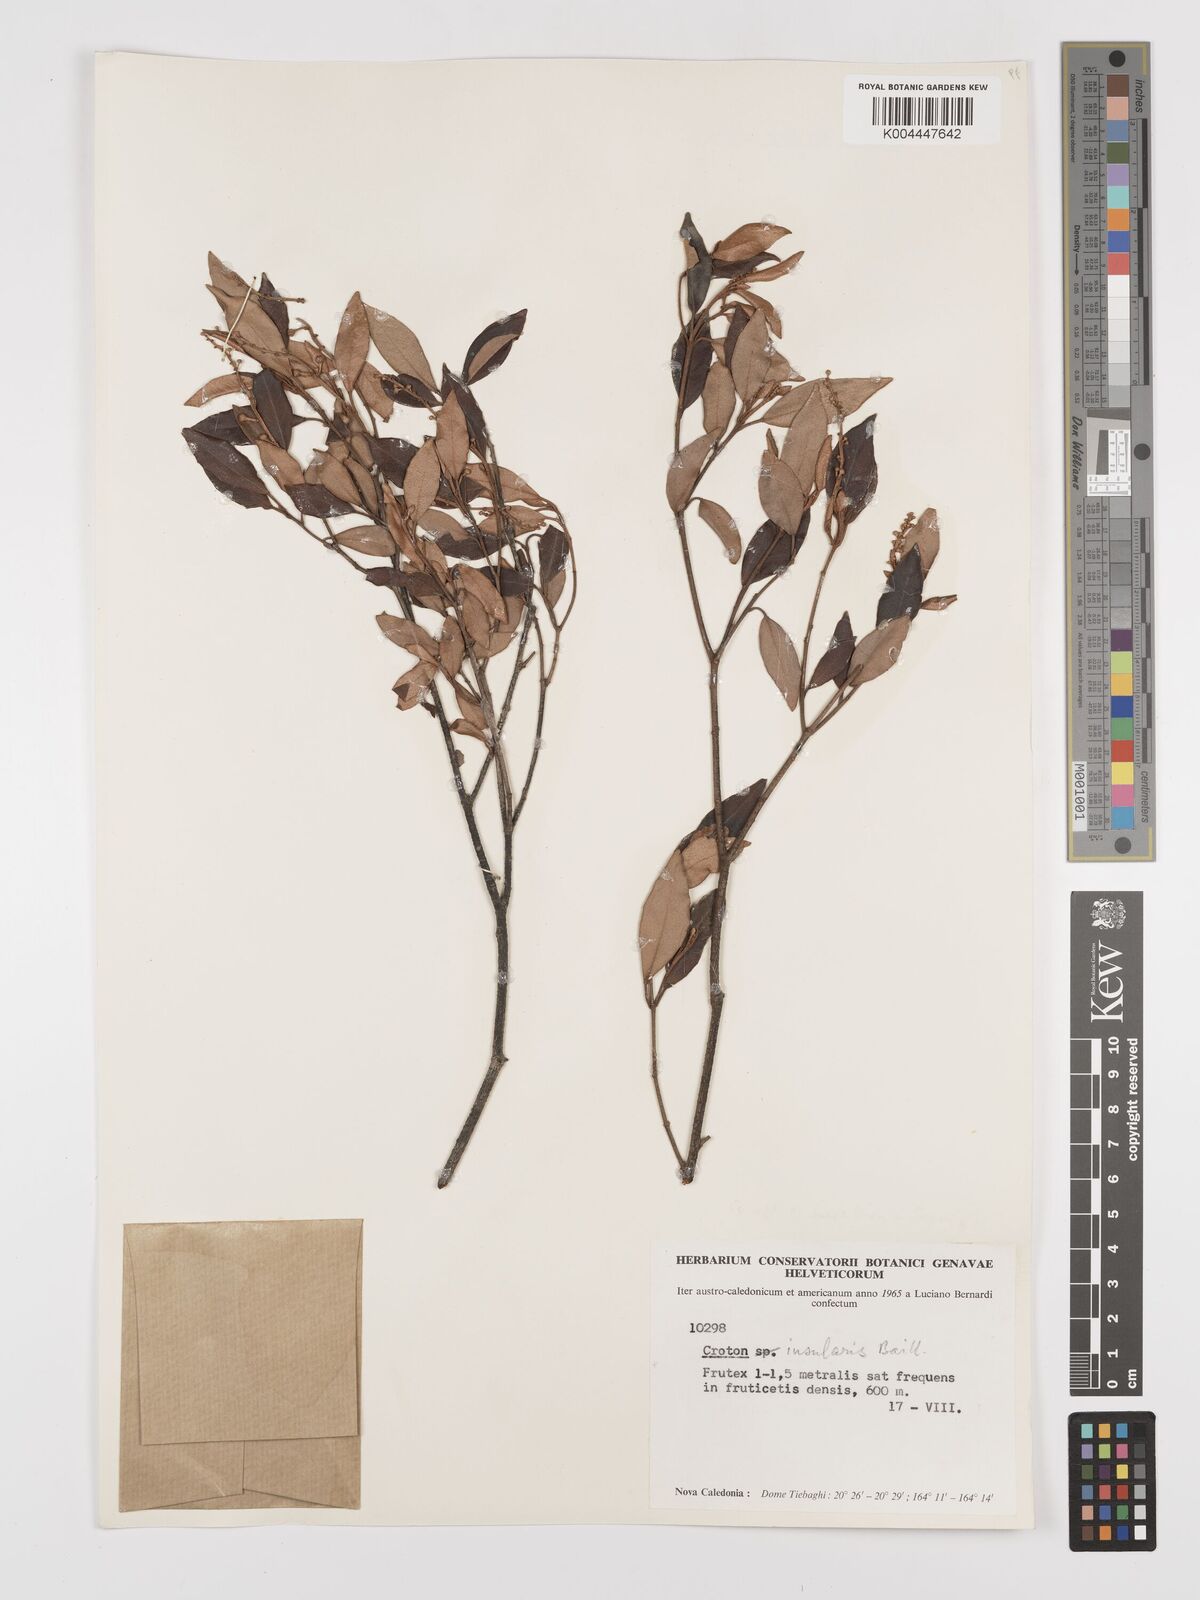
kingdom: Plantae
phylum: Tracheophyta
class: Magnoliopsida
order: Malpighiales
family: Euphorbiaceae
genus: Croton
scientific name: Croton insularis
